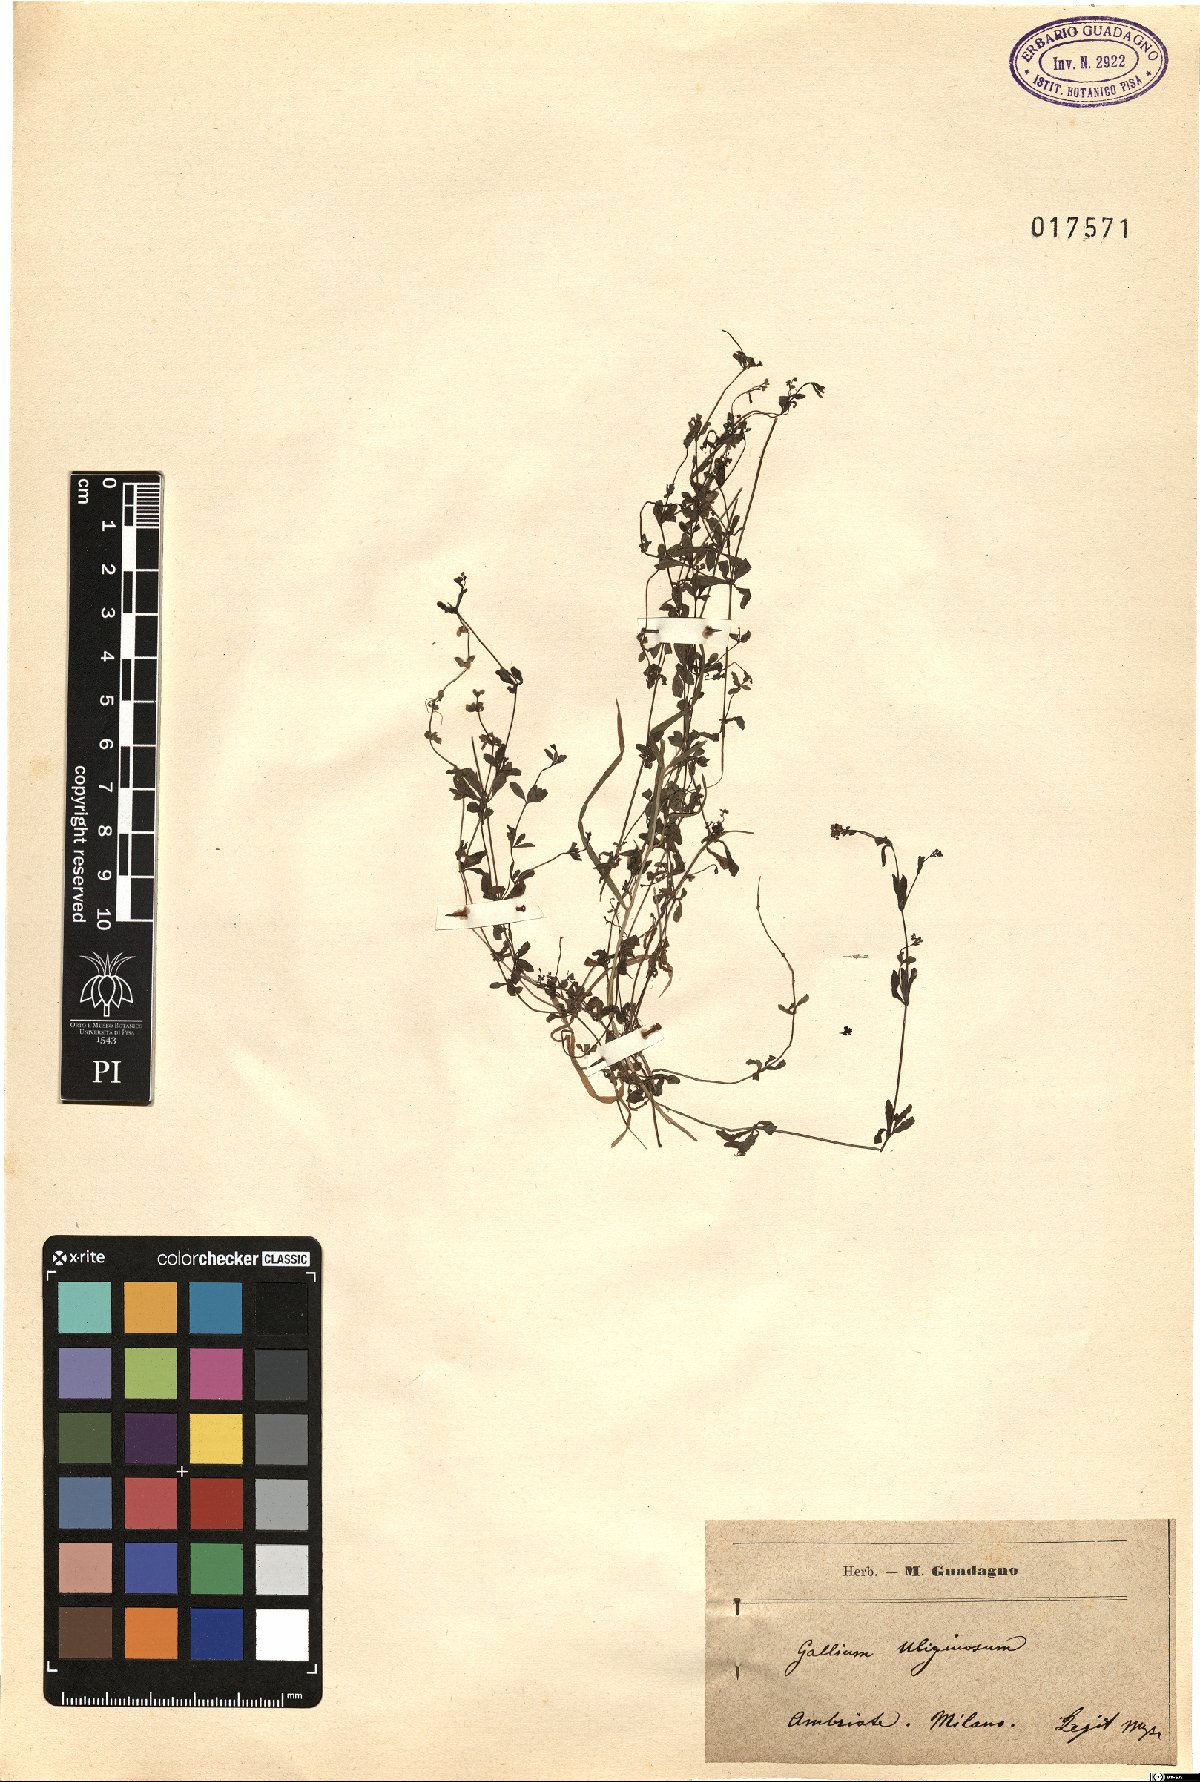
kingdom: Plantae
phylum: Tracheophyta
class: Magnoliopsida
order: Gentianales
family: Rubiaceae
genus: Galium
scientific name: Galium uliginosum
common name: Fen bedstraw
